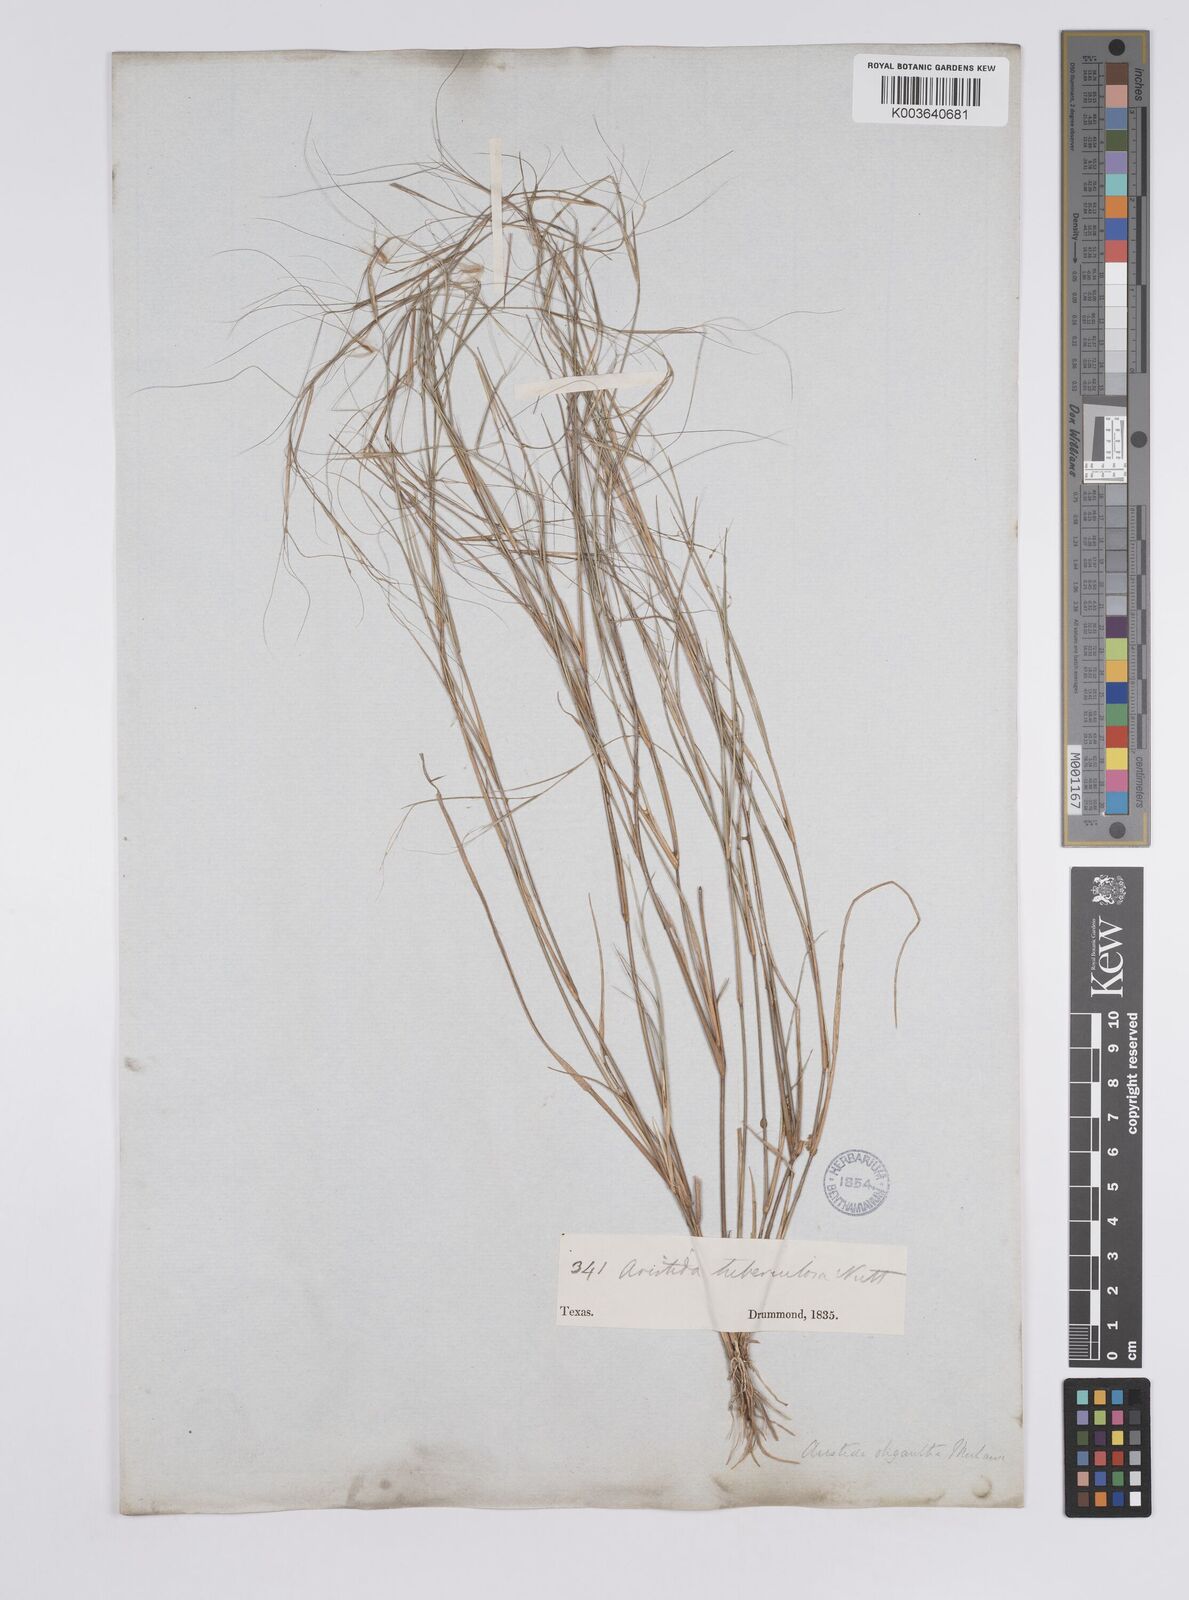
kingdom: Plantae
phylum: Tracheophyta
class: Liliopsida
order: Poales
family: Poaceae
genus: Aristida
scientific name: Aristida oligantha
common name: Few-flowered aristida
